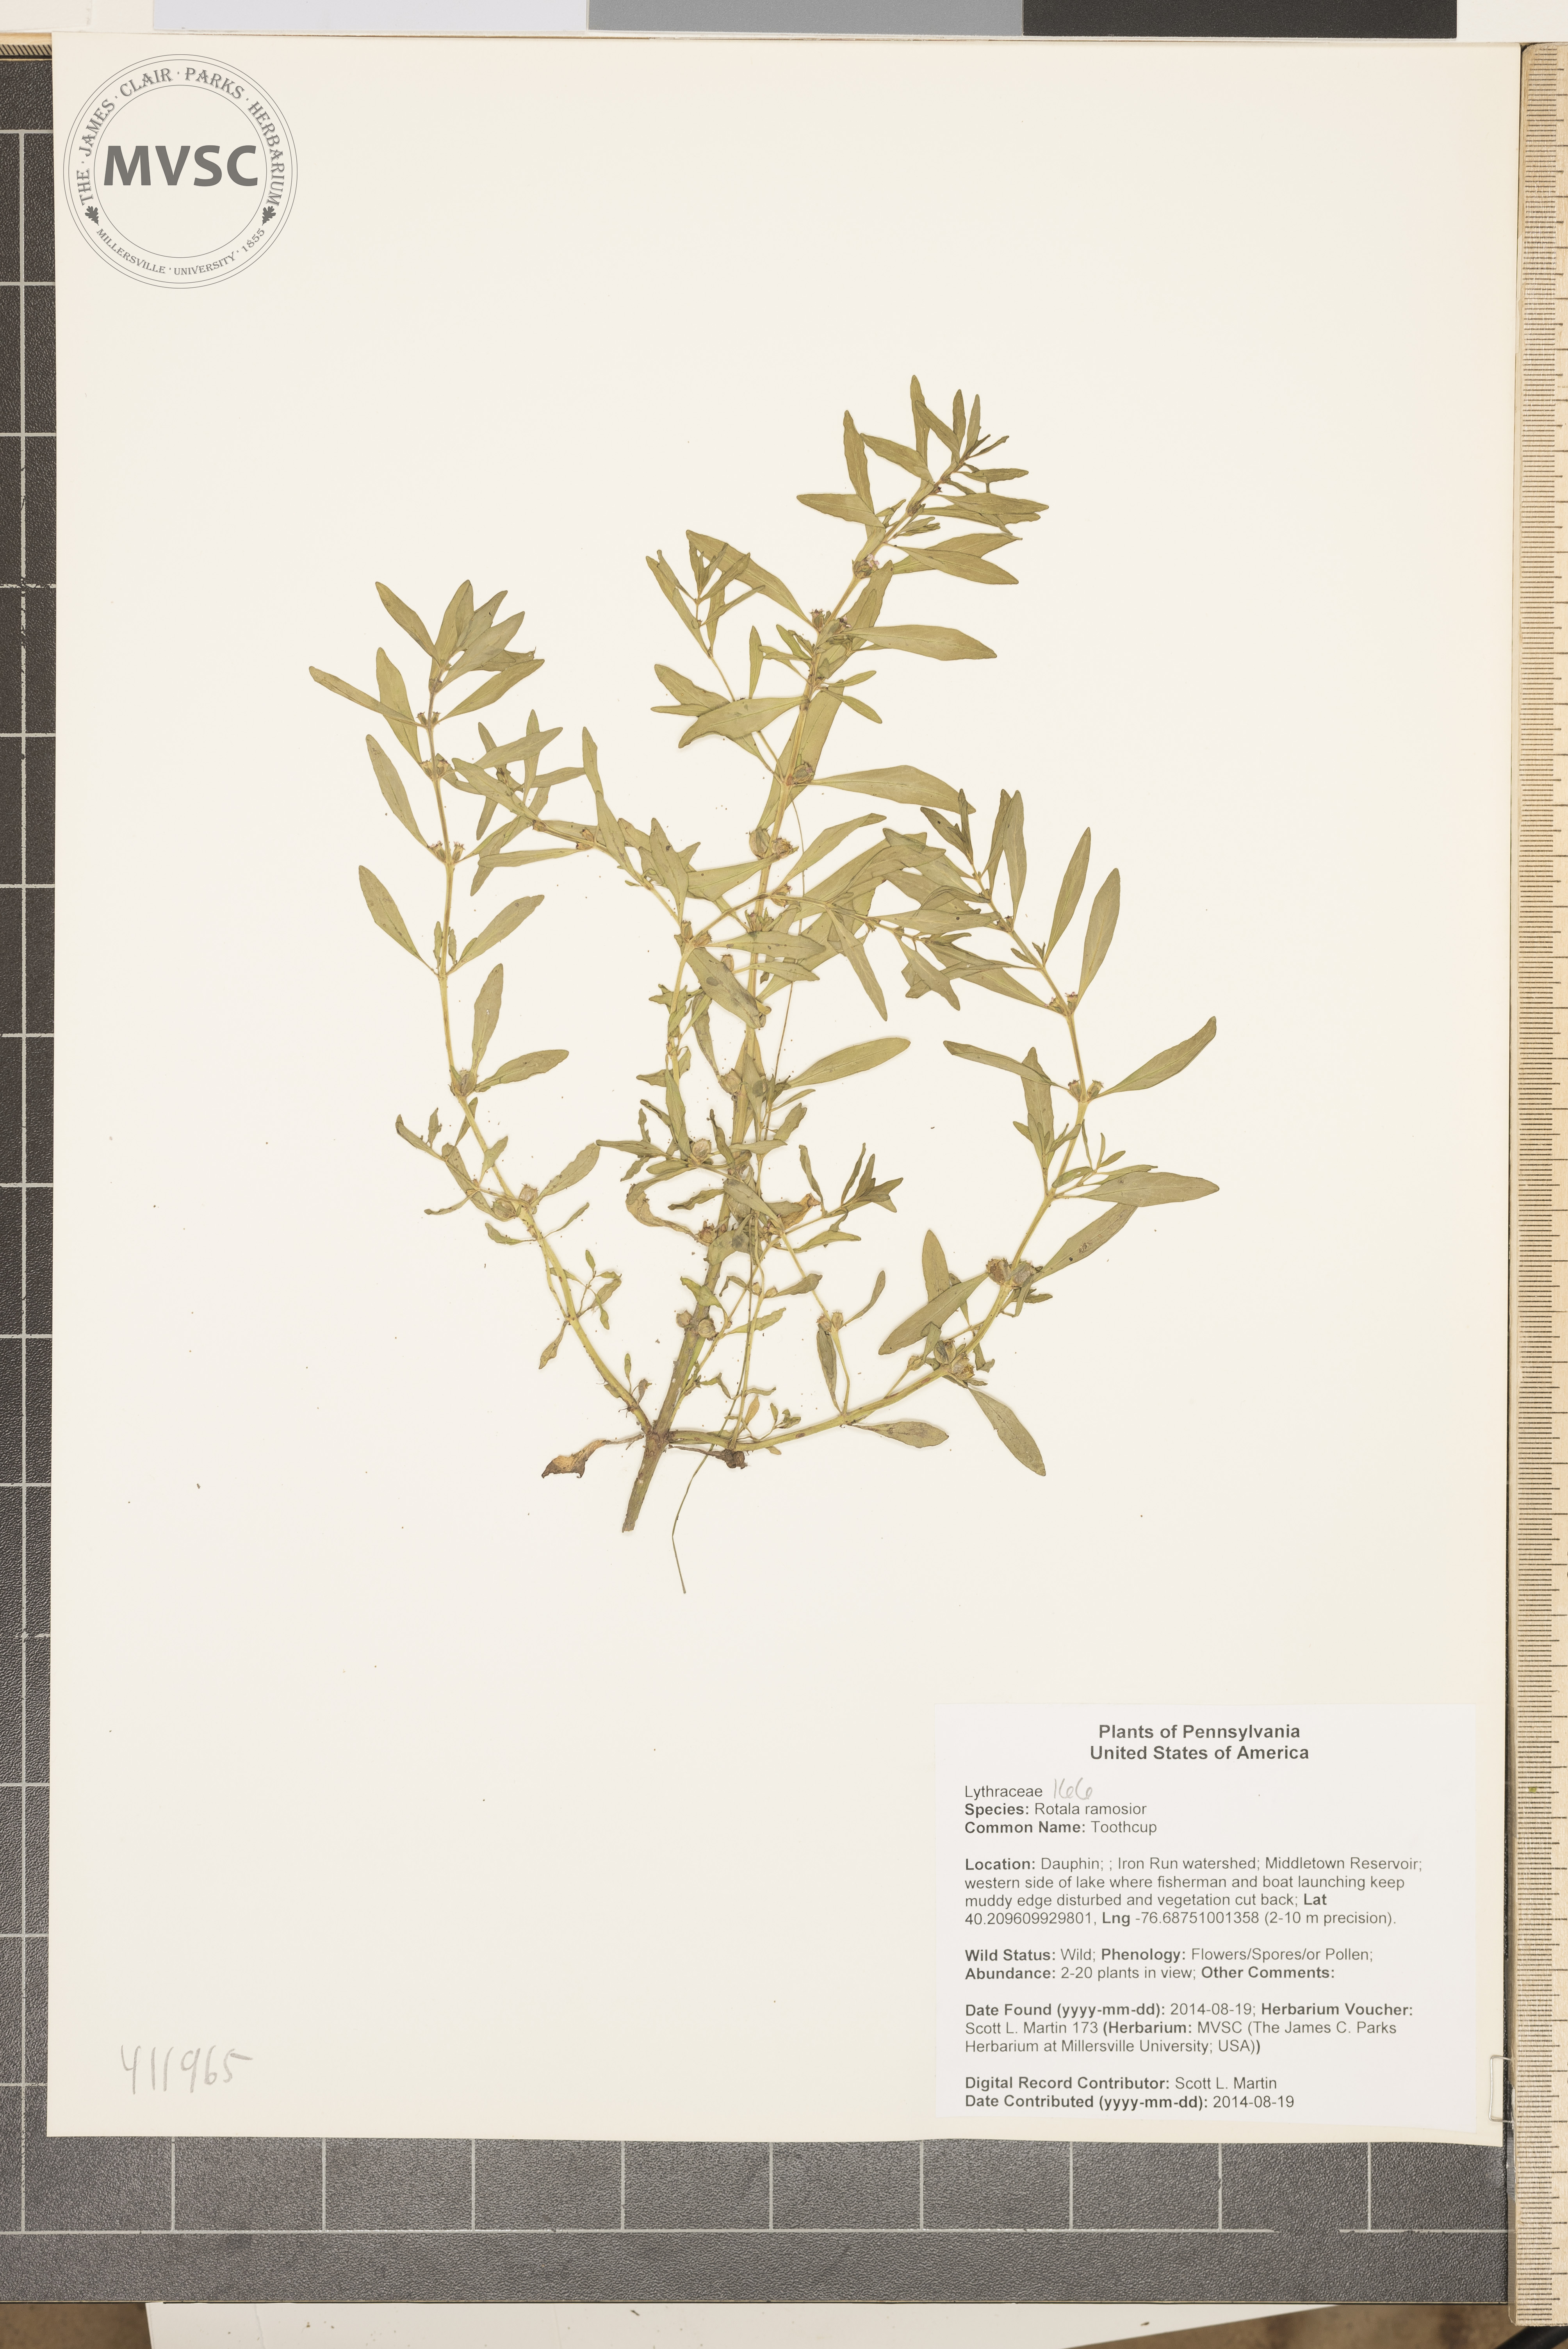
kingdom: Plantae
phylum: Tracheophyta
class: Magnoliopsida
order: Myrtales
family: Lythraceae
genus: Rotala
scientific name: Rotala ramosior
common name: Toothcup
